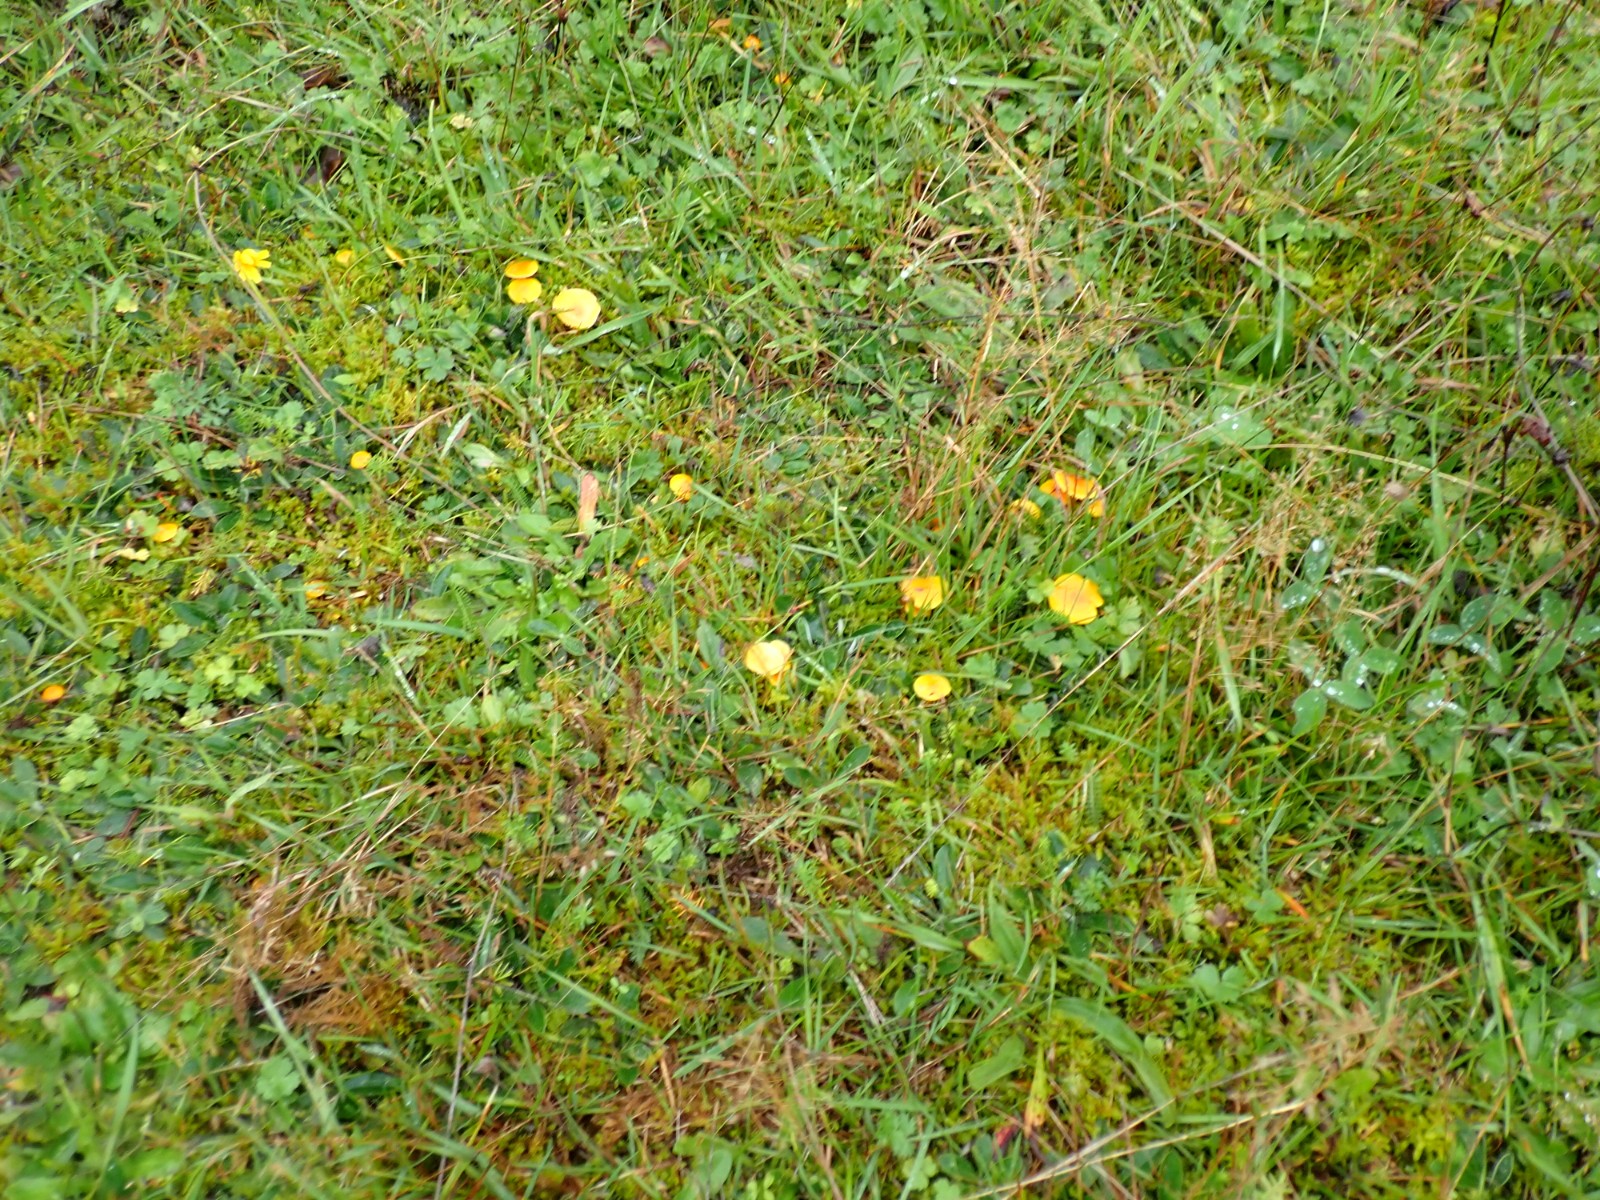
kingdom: Fungi
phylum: Basidiomycota
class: Agaricomycetes
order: Agaricales
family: Hygrophoraceae
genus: Hygrocybe
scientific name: Hygrocybe ceracea
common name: voksgul vokshat
